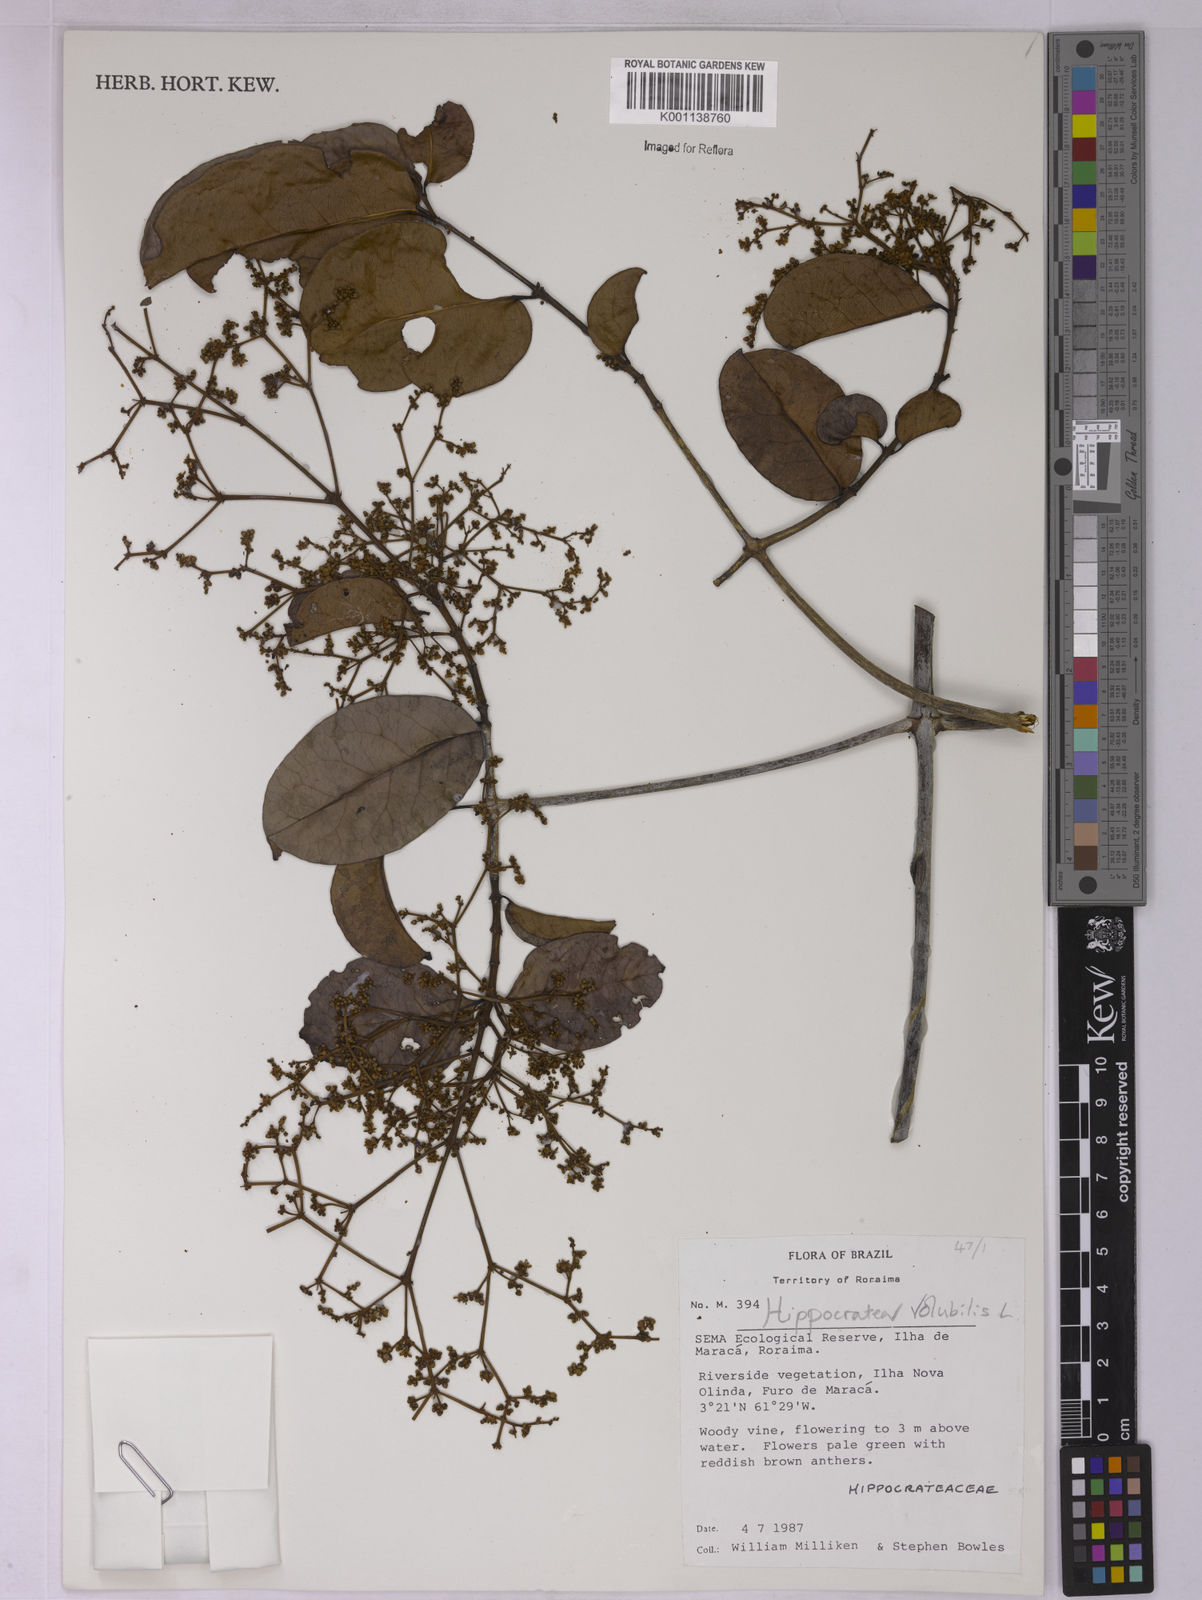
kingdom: Plantae
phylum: Tracheophyta
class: Magnoliopsida
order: Celastrales
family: Celastraceae
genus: Hippocratea
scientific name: Hippocratea volubilis
